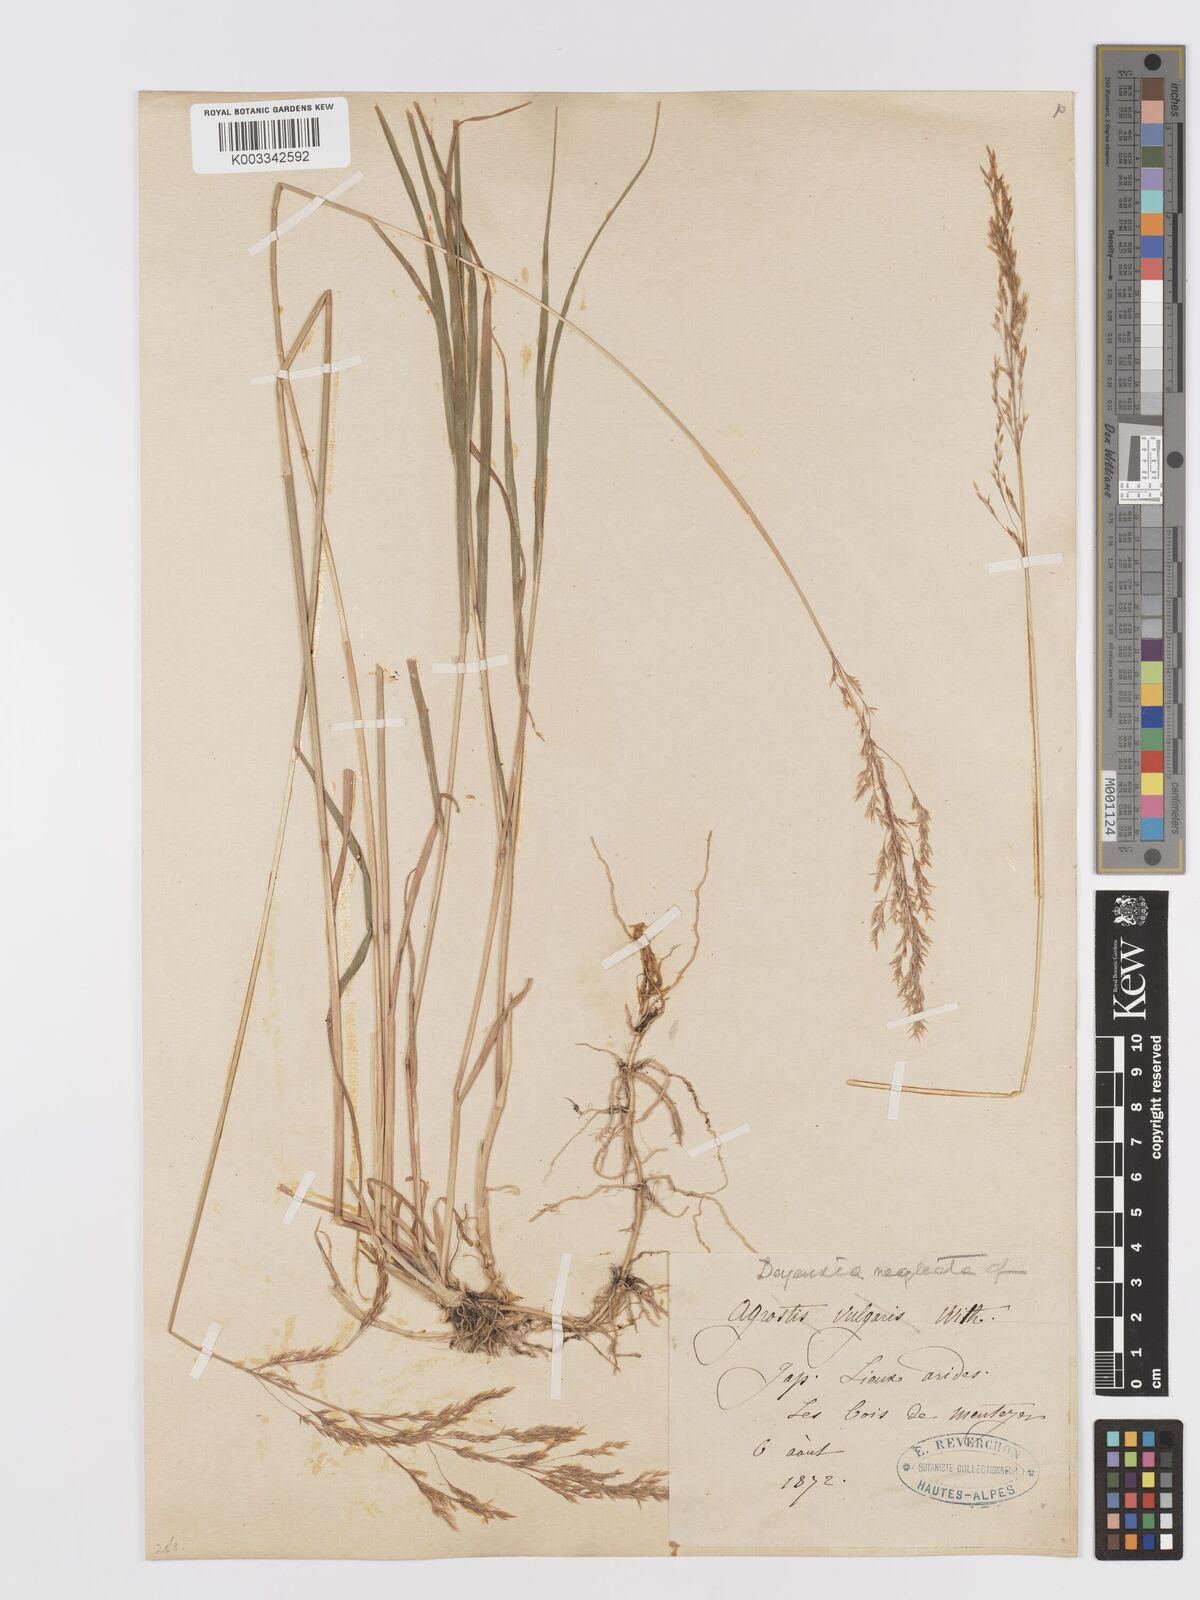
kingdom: Plantae
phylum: Tracheophyta
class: Liliopsida
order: Poales
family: Poaceae
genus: Agrostis
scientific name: Agrostis
